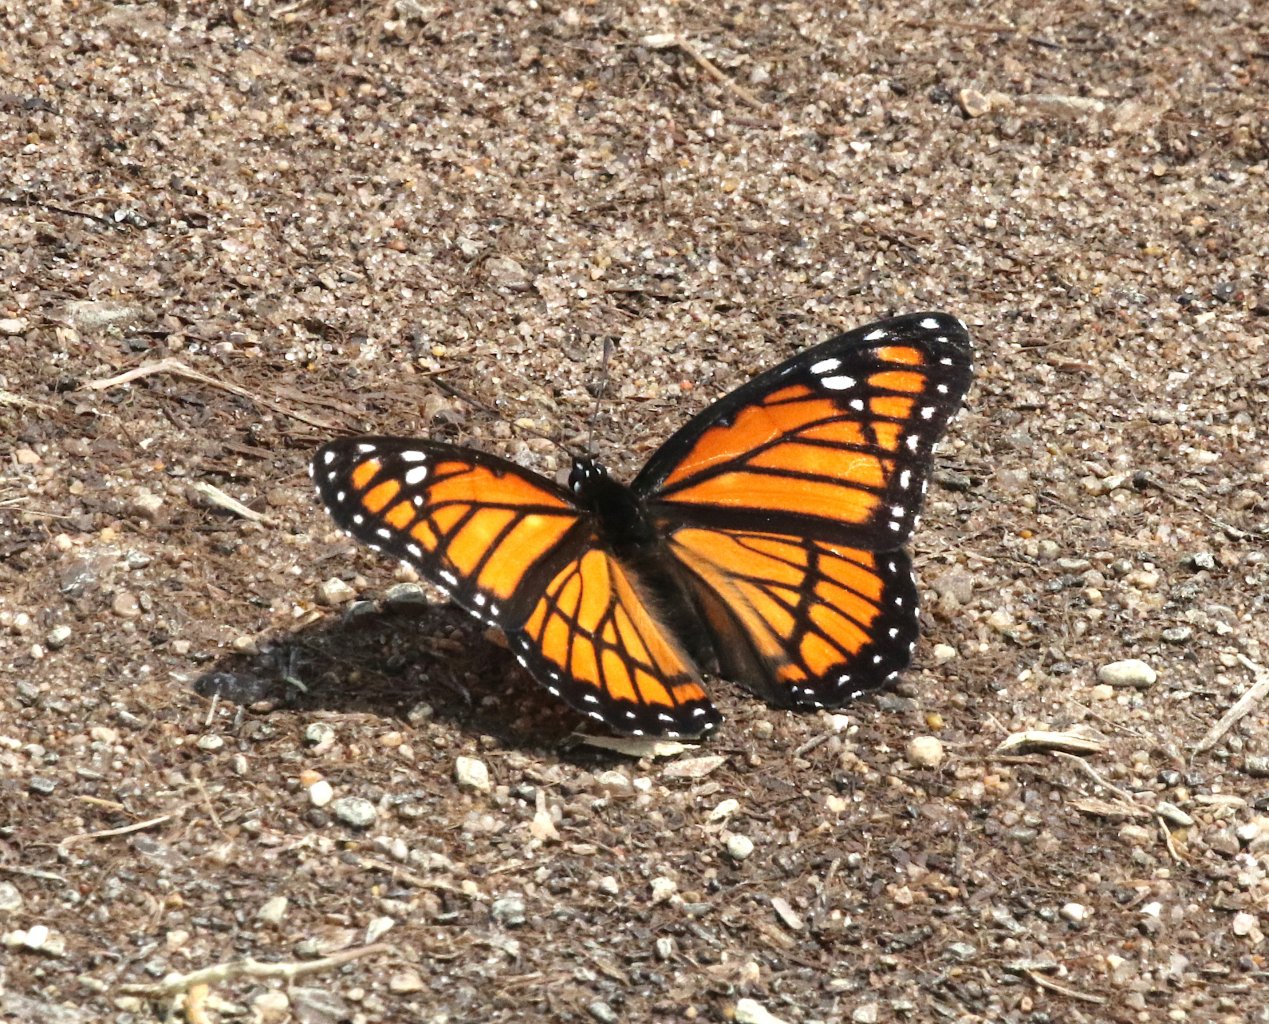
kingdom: Animalia
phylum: Arthropoda
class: Insecta
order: Lepidoptera
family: Nymphalidae
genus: Limenitis
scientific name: Limenitis archippus
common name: Viceroy
